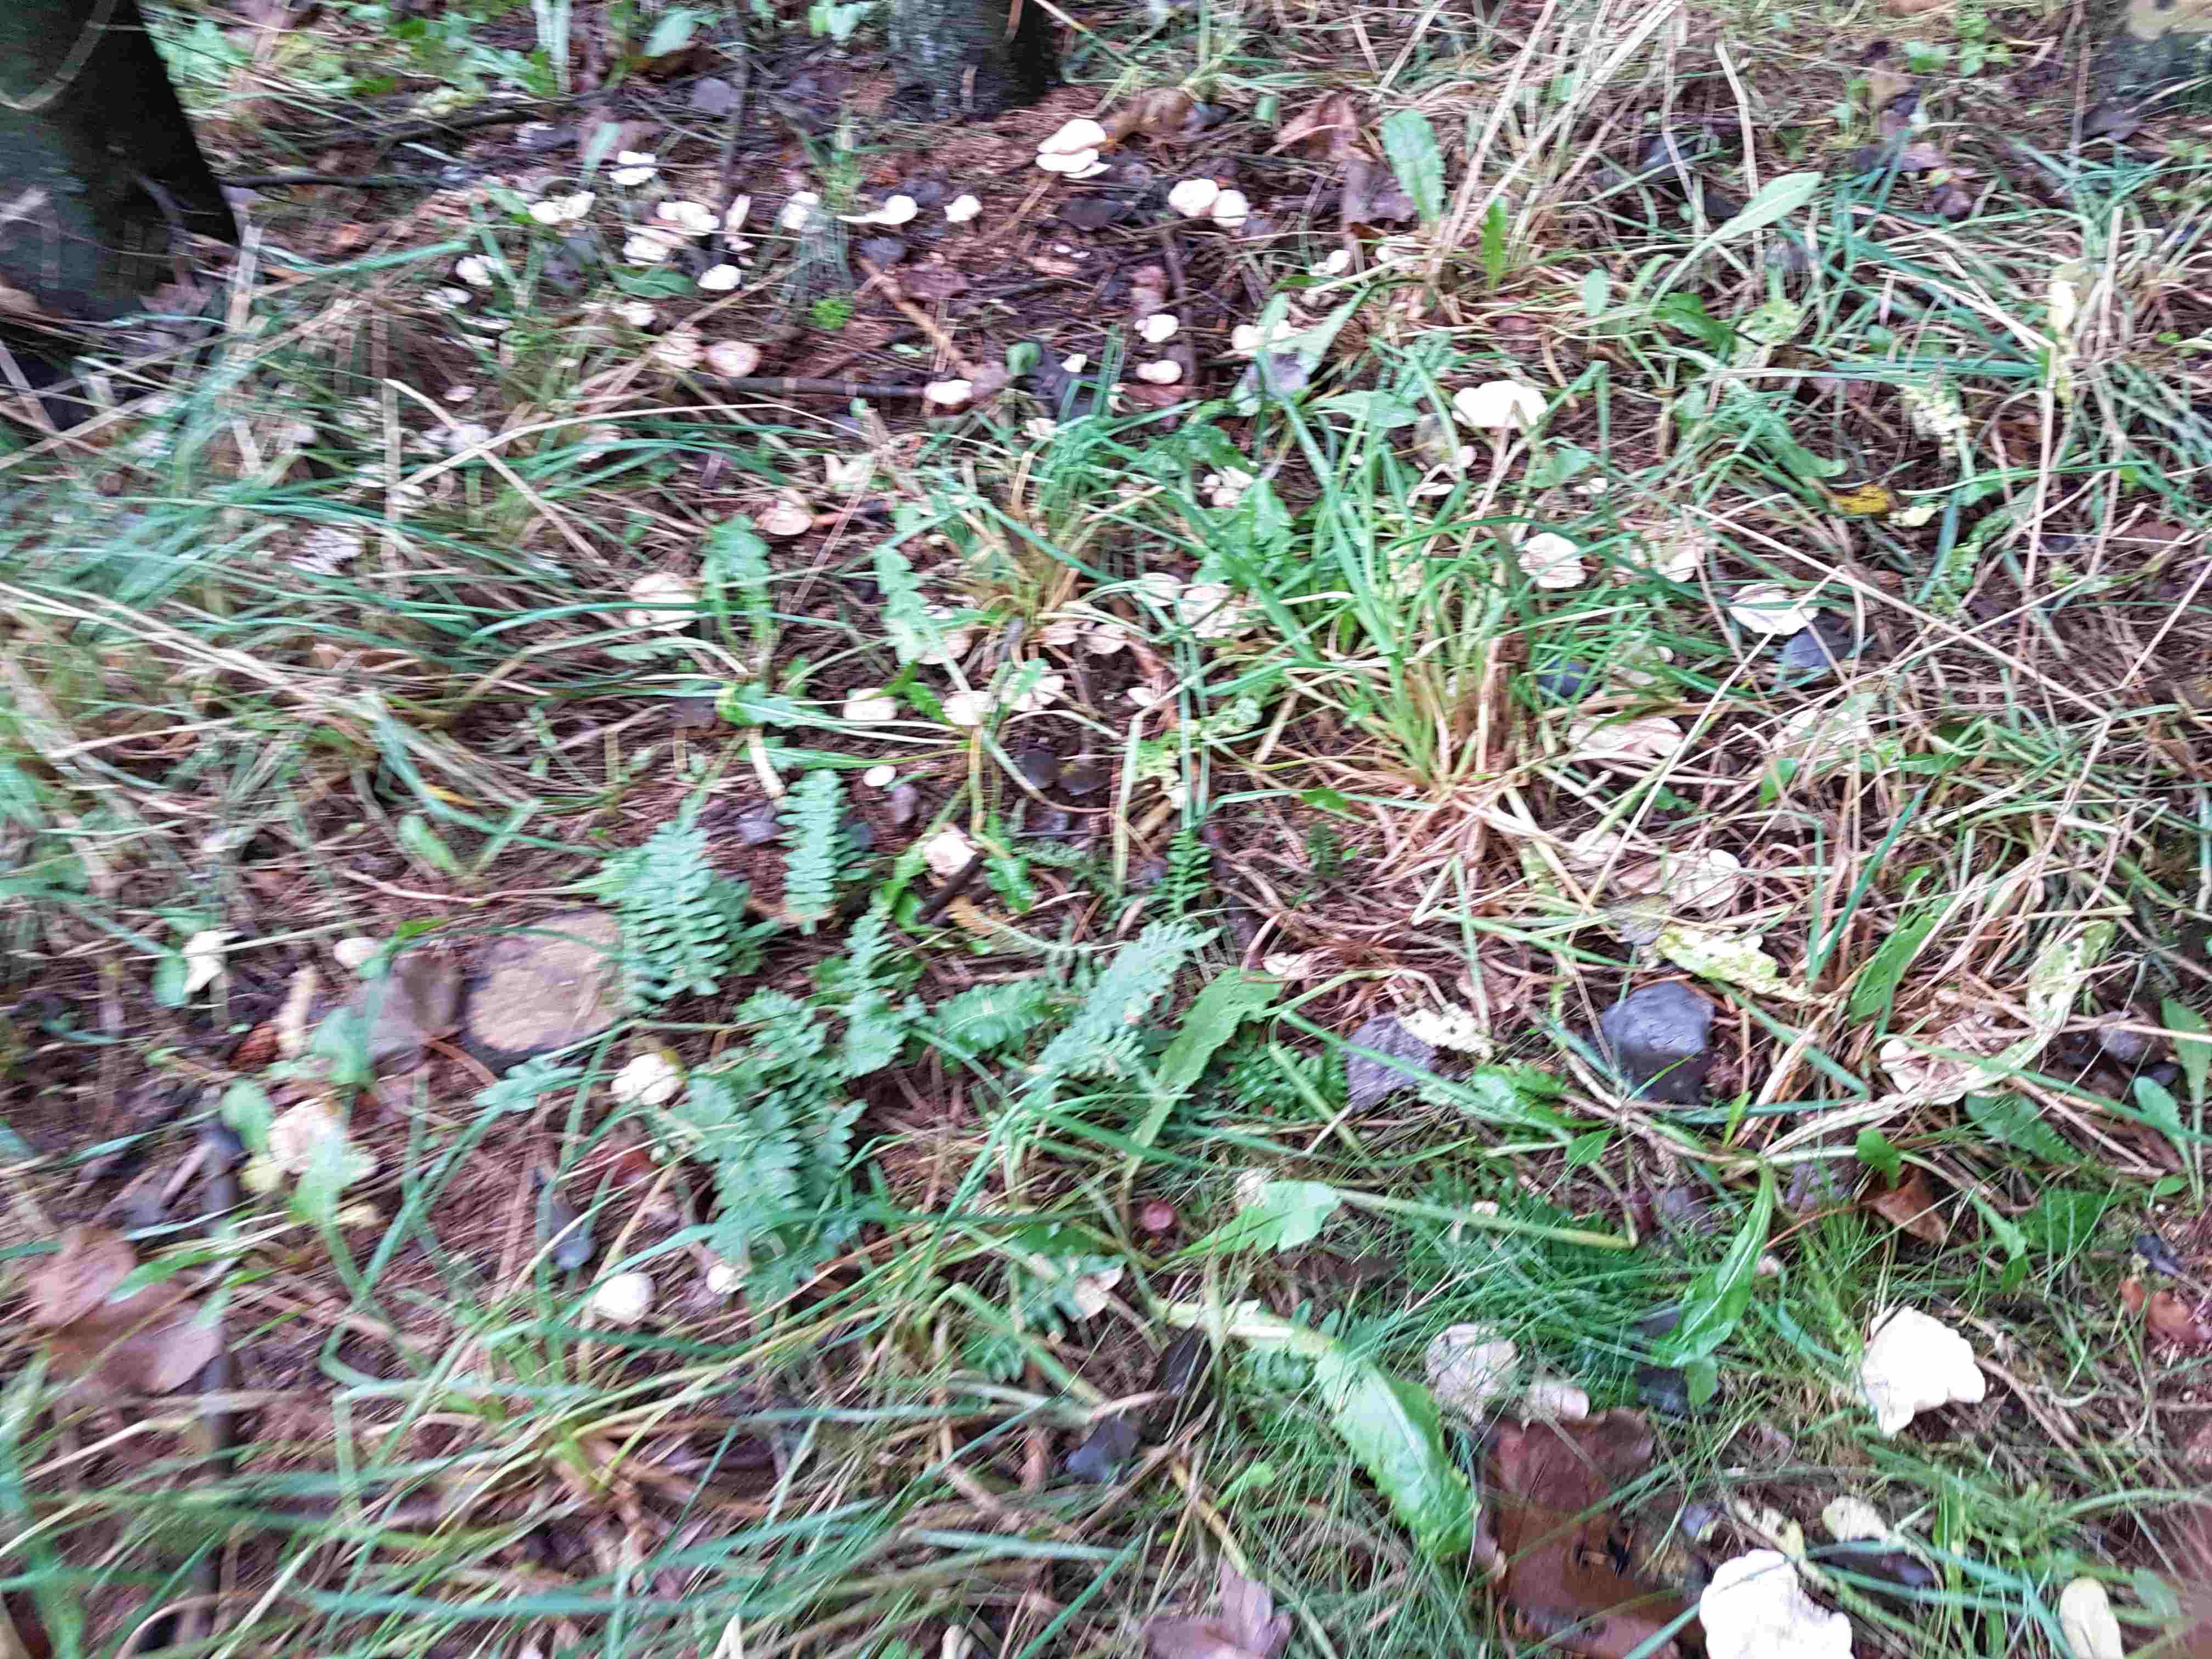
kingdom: Fungi
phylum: Basidiomycota
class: Agaricomycetes
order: Agaricales
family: Tricholomataceae
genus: Clitocybe
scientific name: Clitocybe
